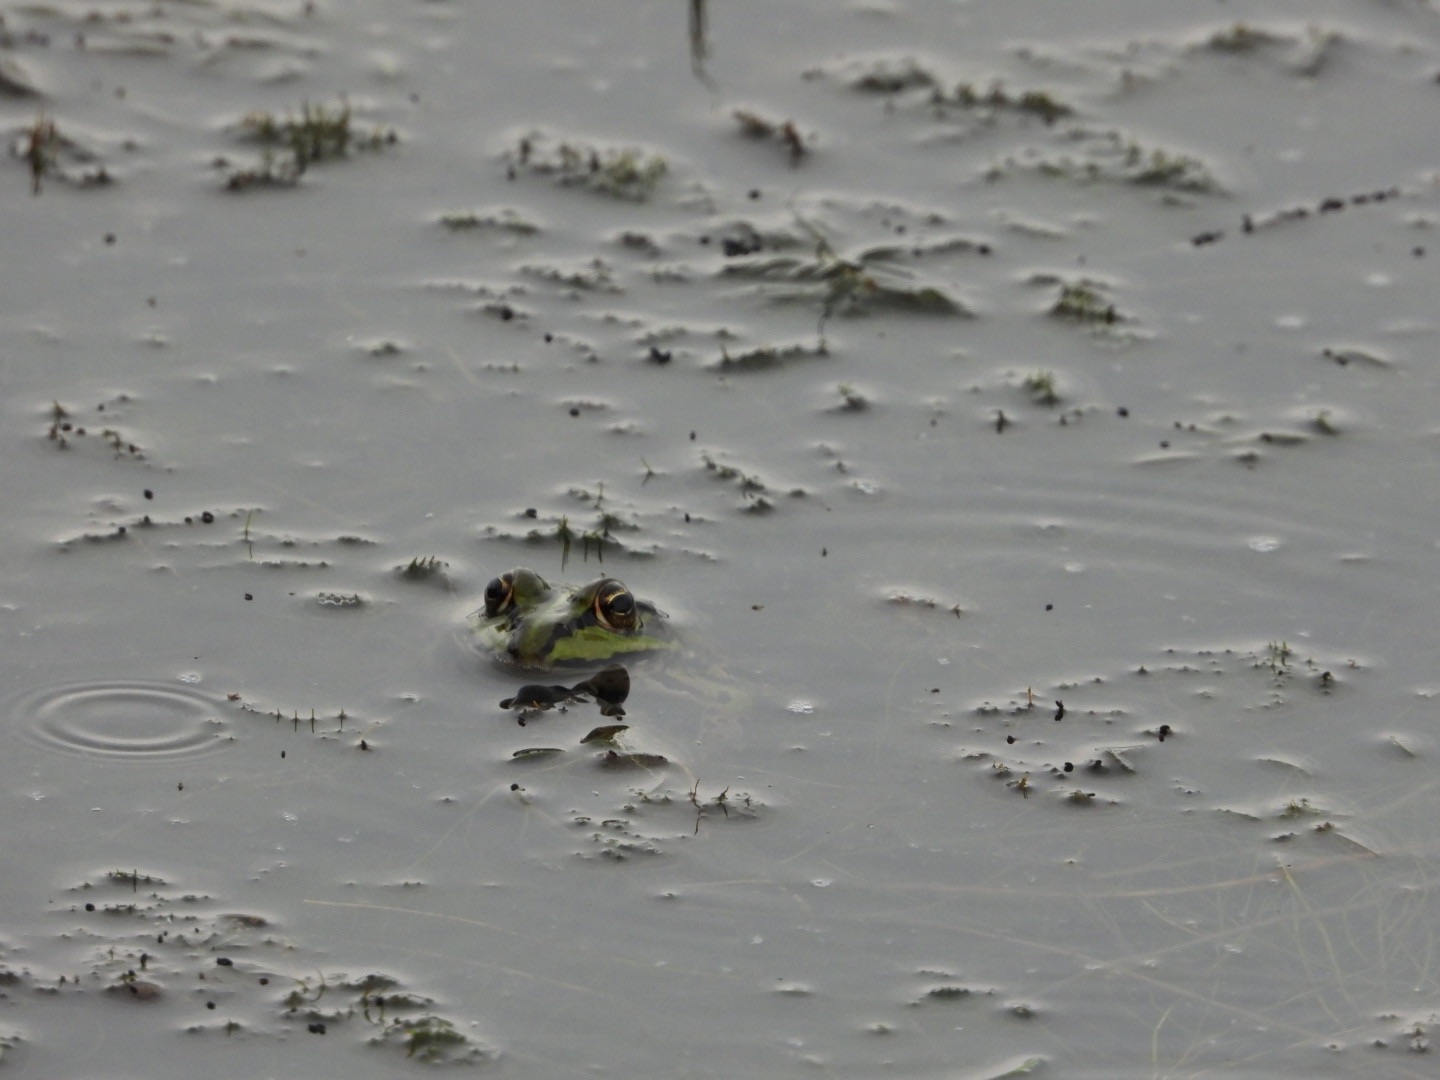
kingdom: Animalia
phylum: Chordata
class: Amphibia
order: Anura
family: Ranidae
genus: Pelophylax
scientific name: Pelophylax lessonae
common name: Grøn frø
